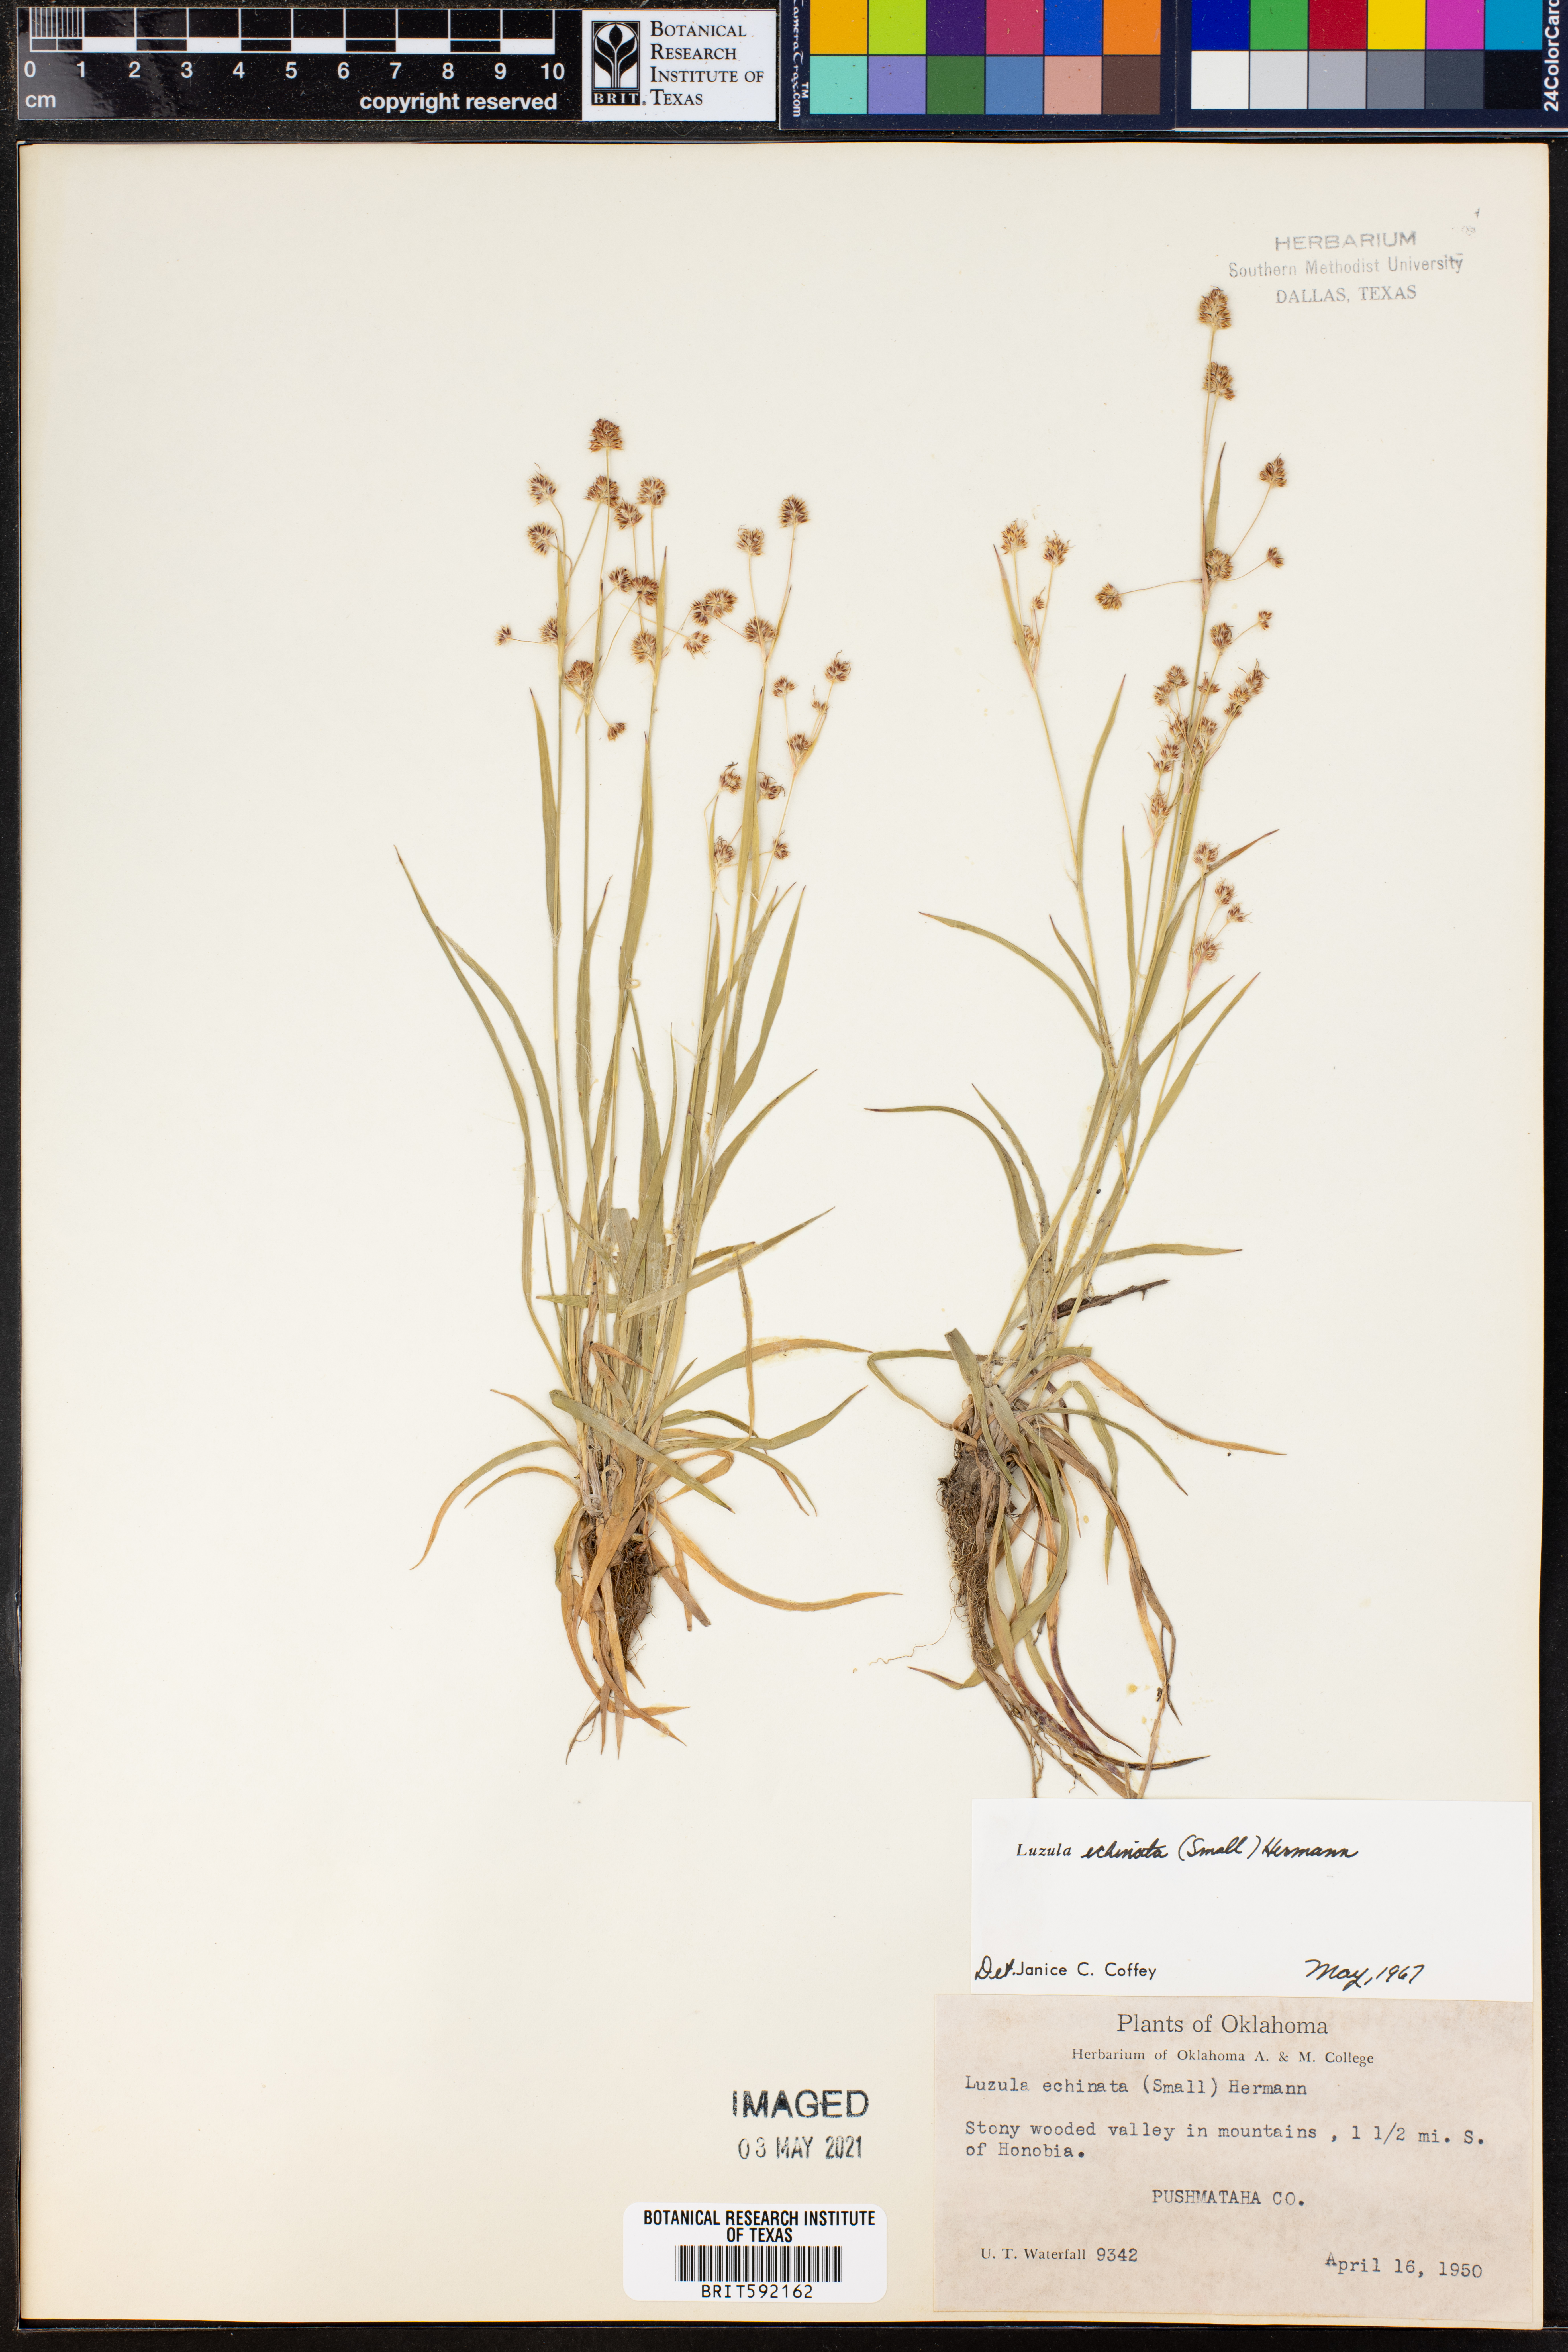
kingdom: Plantae
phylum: Tracheophyta
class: Liliopsida
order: Poales
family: Juncaceae
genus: Luzula
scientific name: Luzula echinata
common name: Hedgehog woodrush
